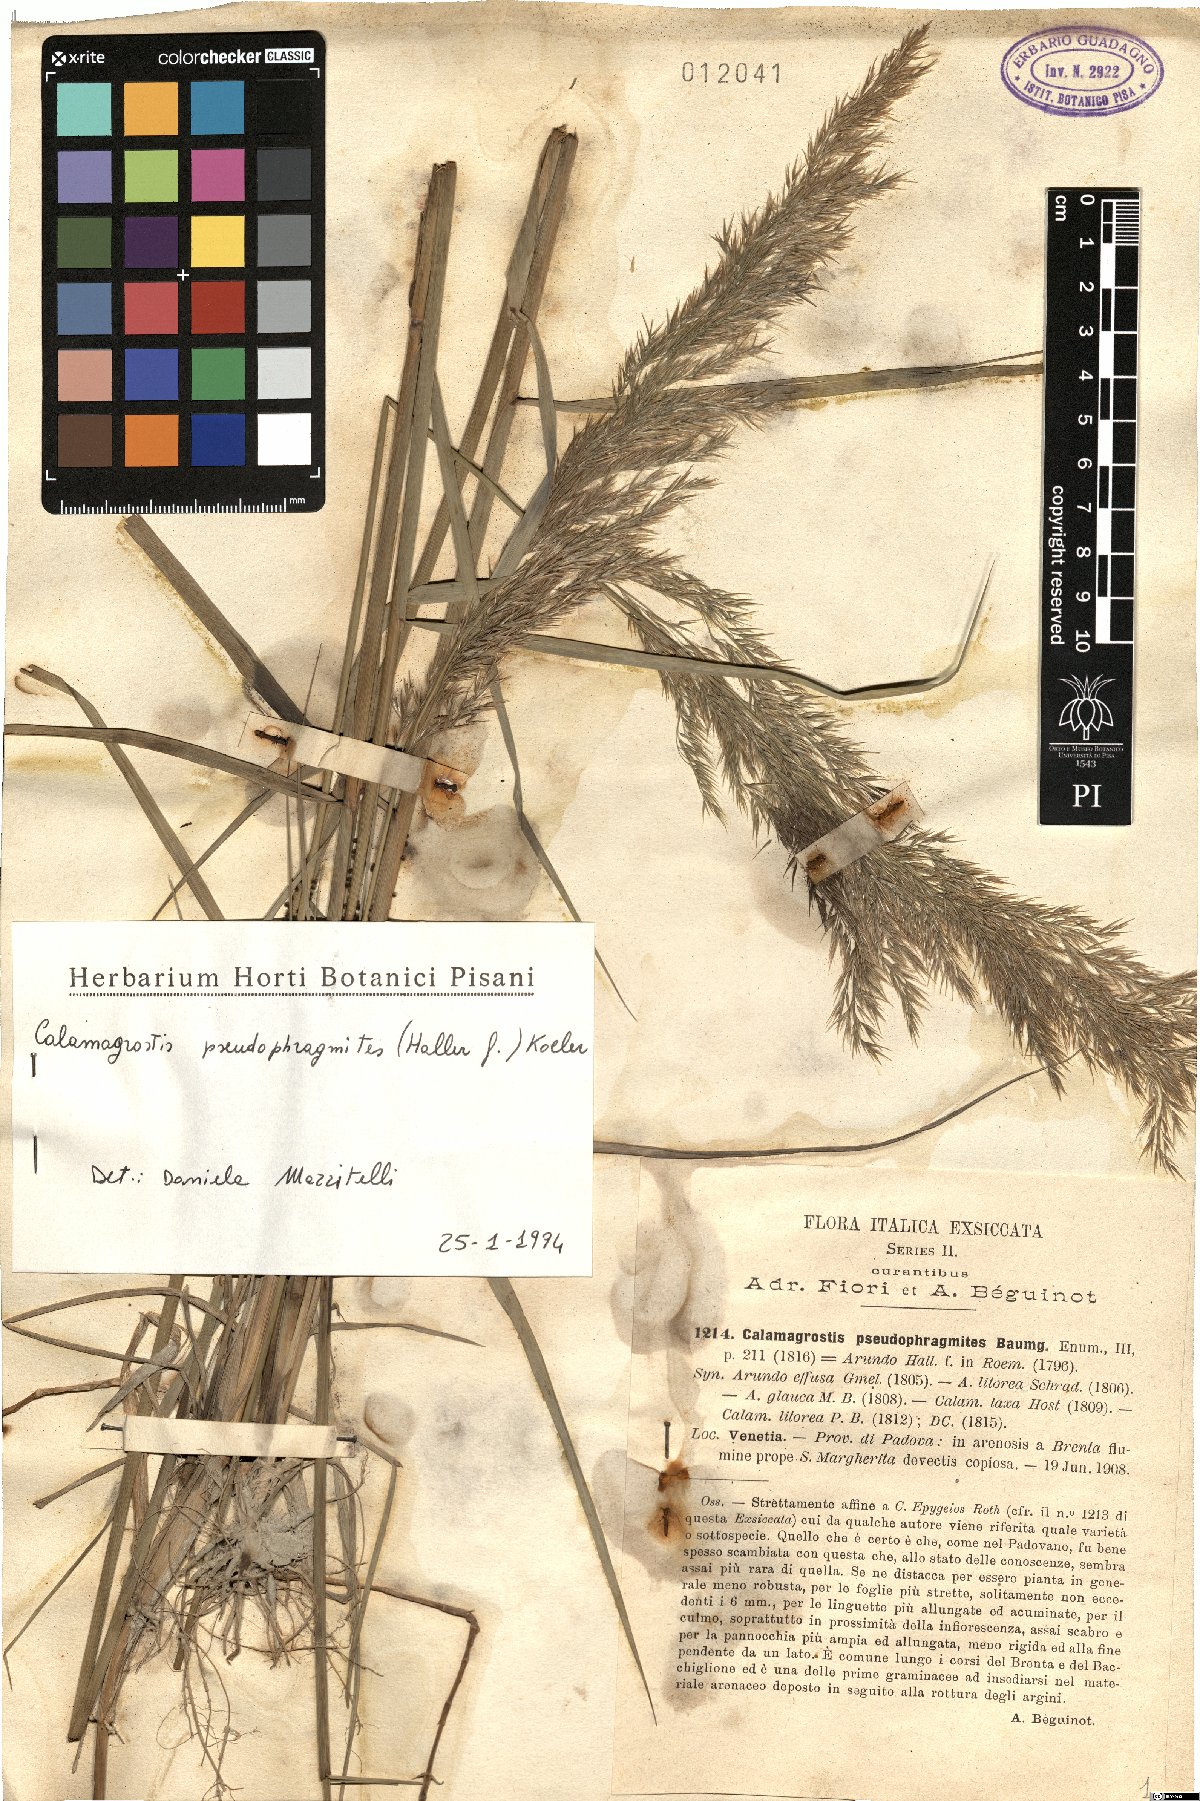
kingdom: Plantae
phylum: Tracheophyta
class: Liliopsida
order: Poales
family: Poaceae
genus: Calamagrostis
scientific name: Calamagrostis pseudophragmites
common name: Coastal small-reed
